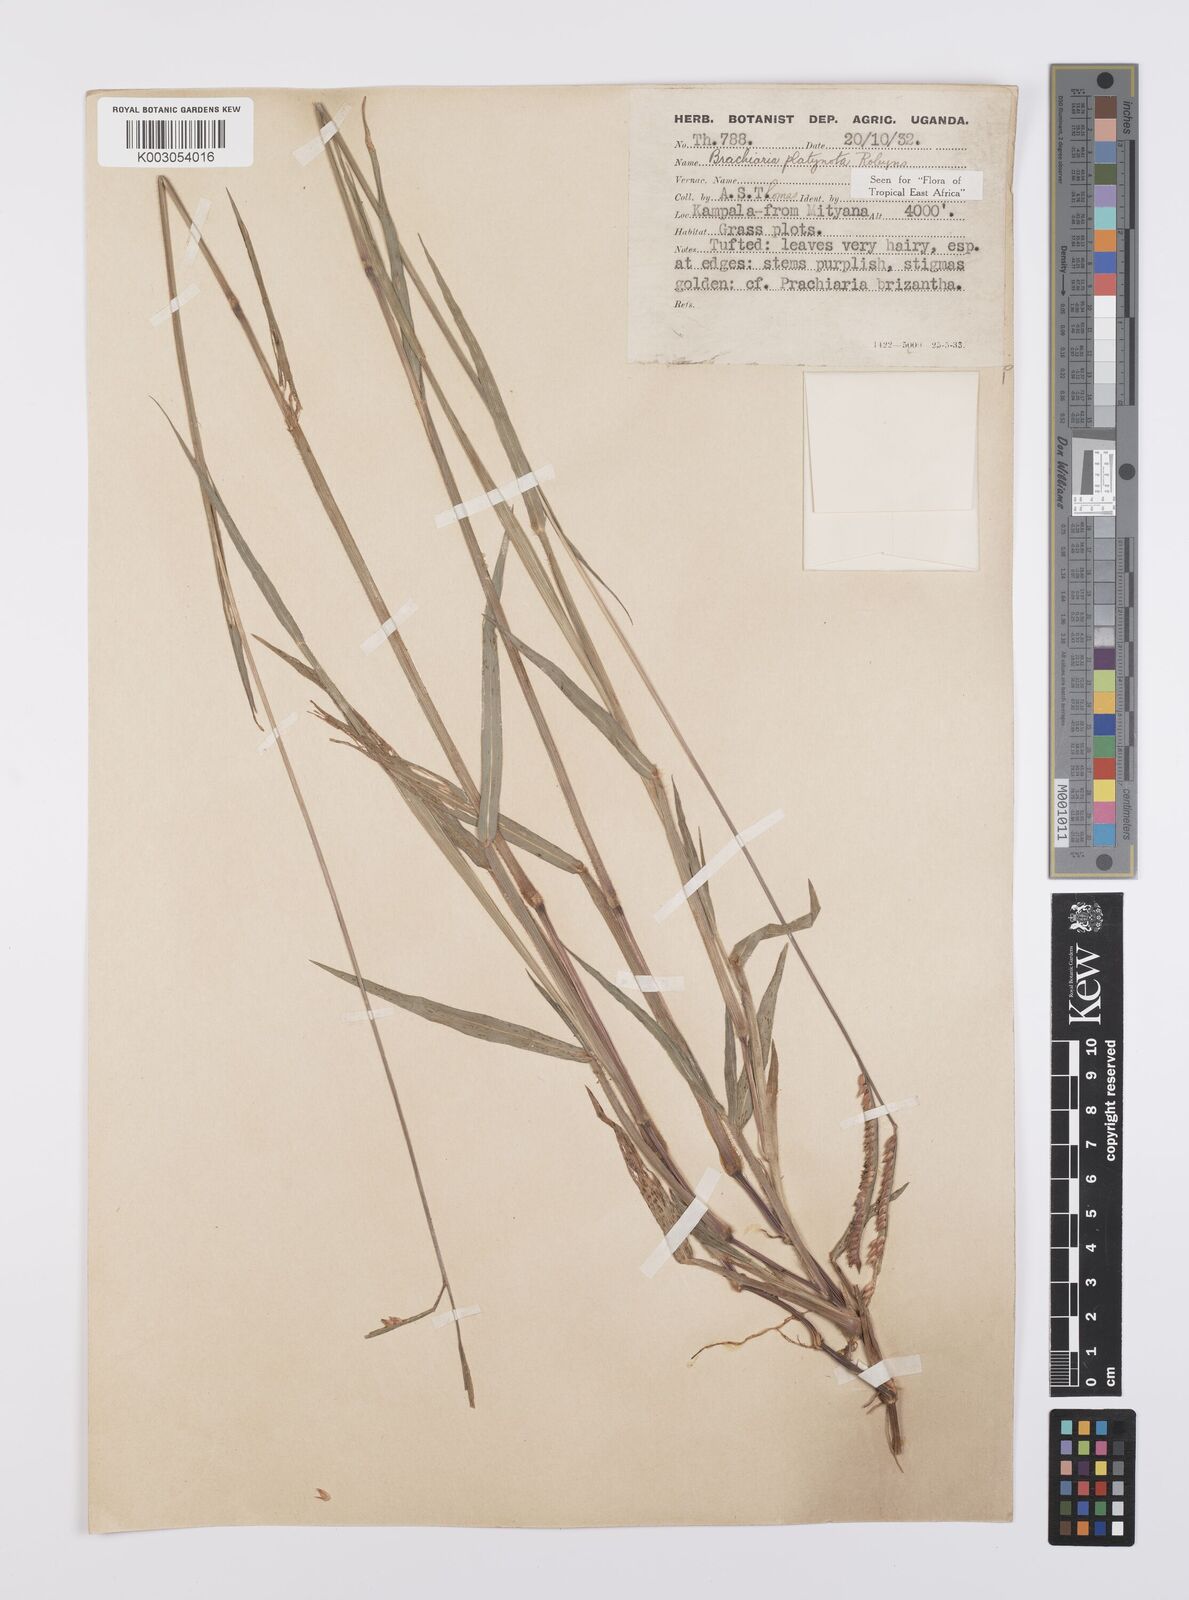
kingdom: Plantae
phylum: Tracheophyta
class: Liliopsida
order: Poales
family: Poaceae
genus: Urochloa
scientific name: Urochloa platynota
